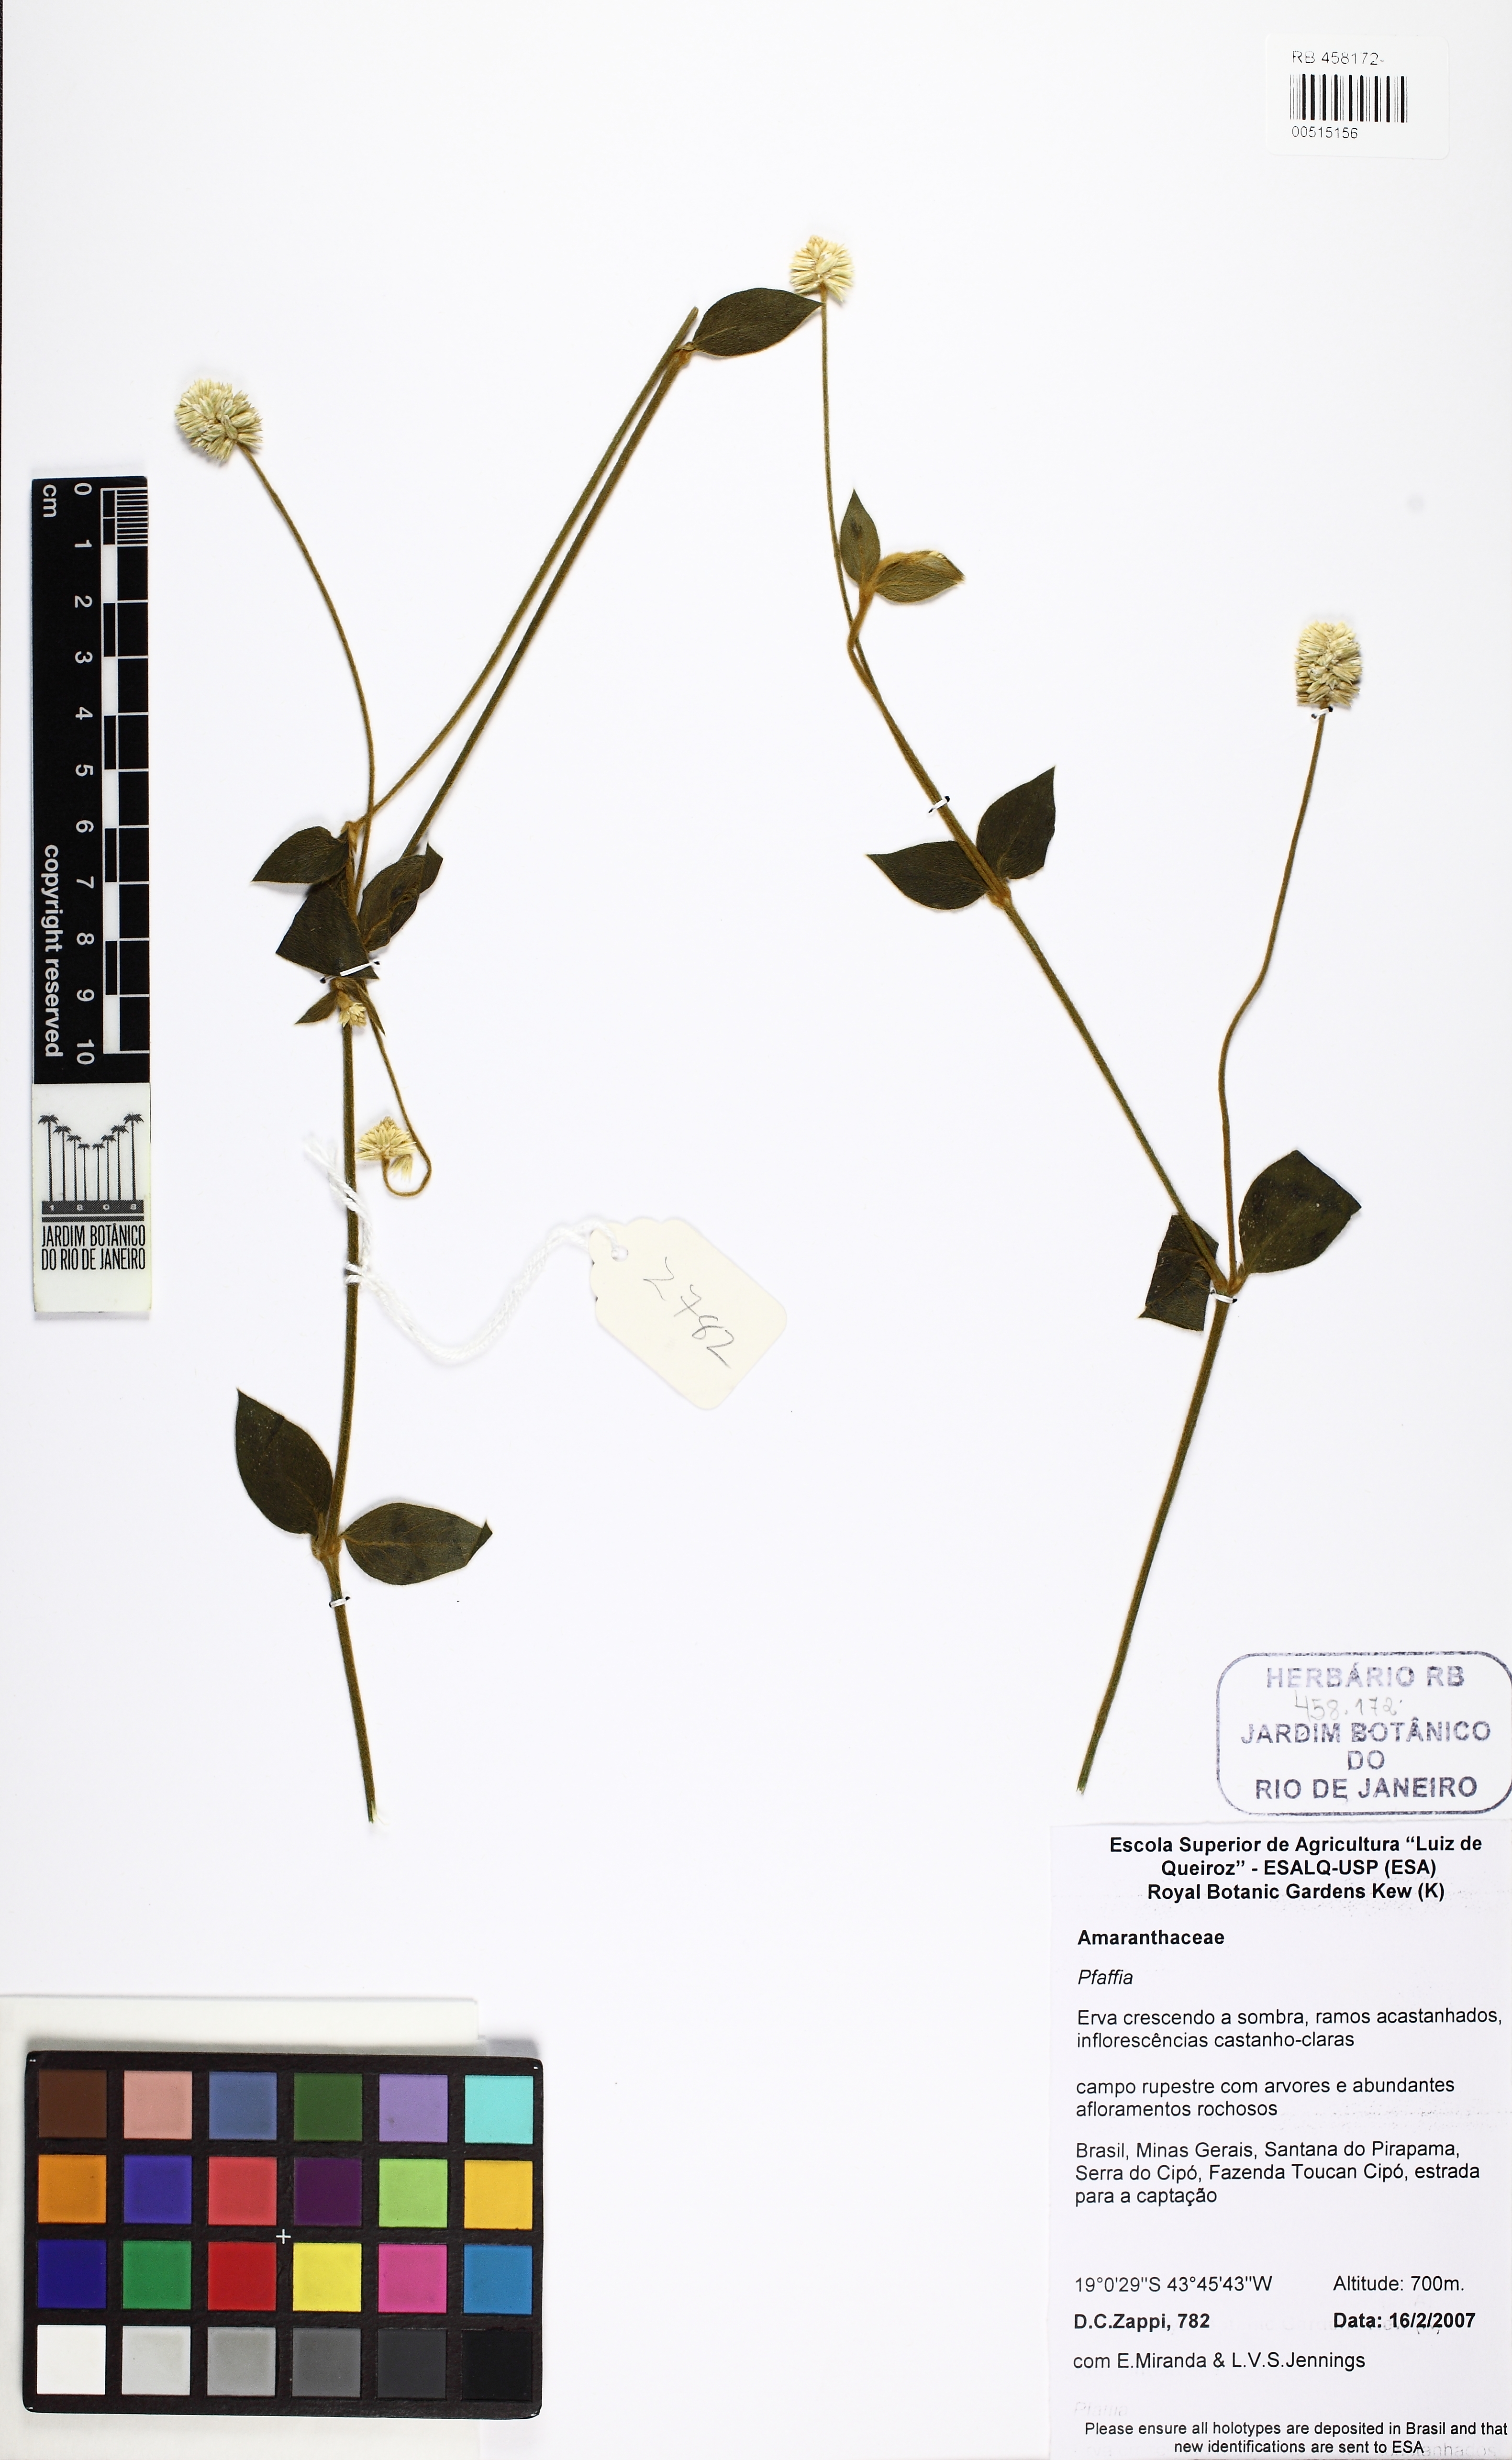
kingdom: Plantae
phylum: Tracheophyta
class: Magnoliopsida
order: Caryophyllales
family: Amaranthaceae
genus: Pfaffia
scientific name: Pfaffia
